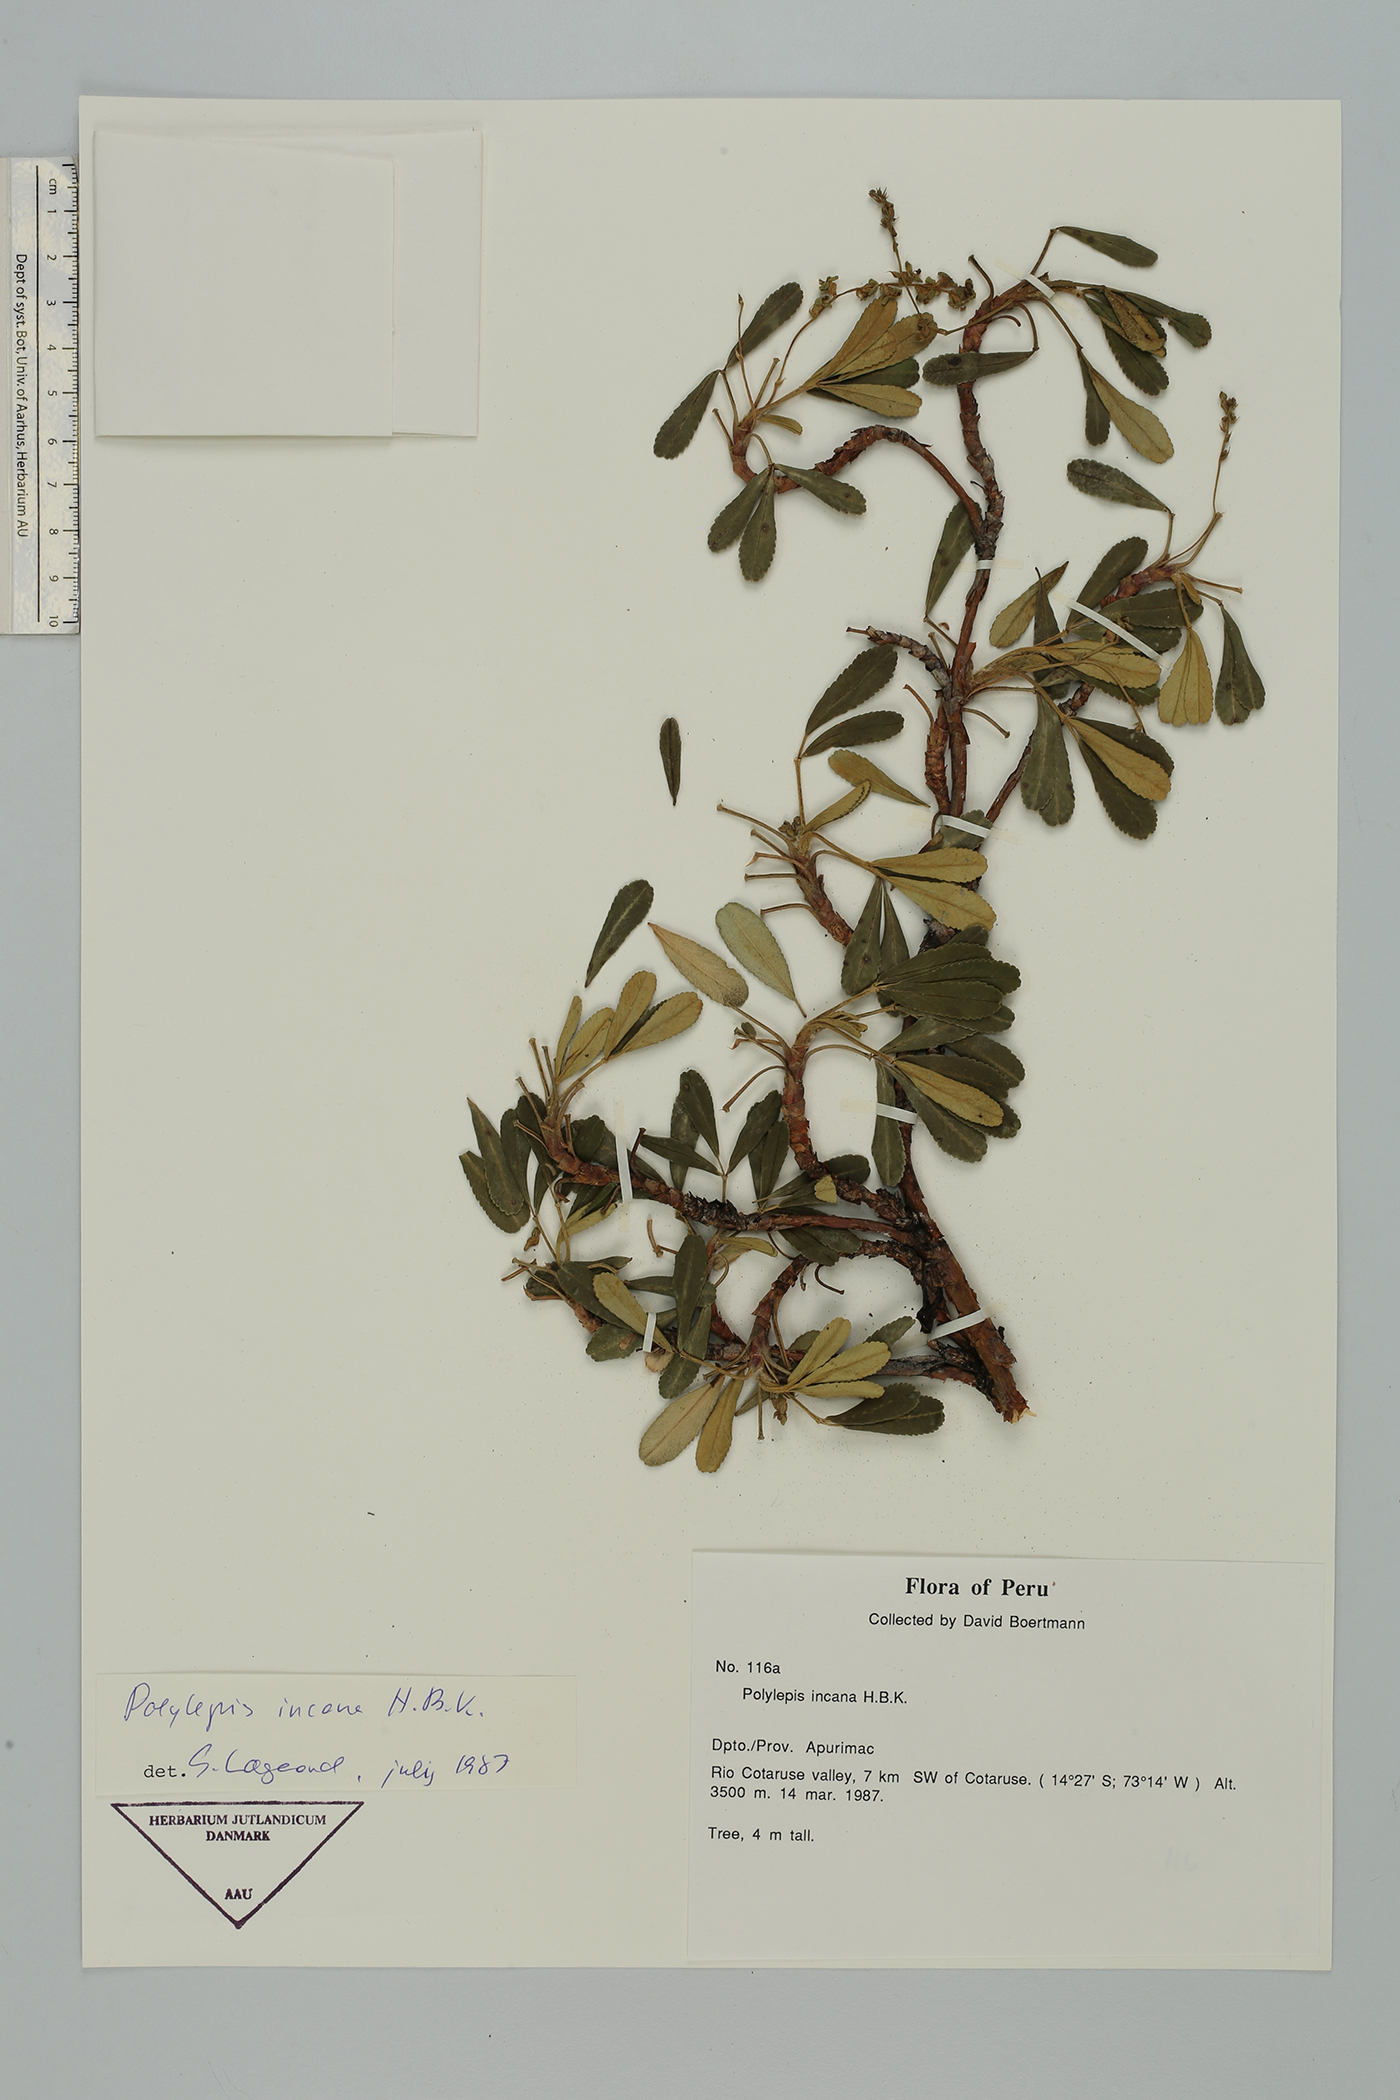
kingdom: Plantae
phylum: Tracheophyta
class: Magnoliopsida
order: Rosales
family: Rosaceae
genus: Polylepis
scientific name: Polylepis incana
